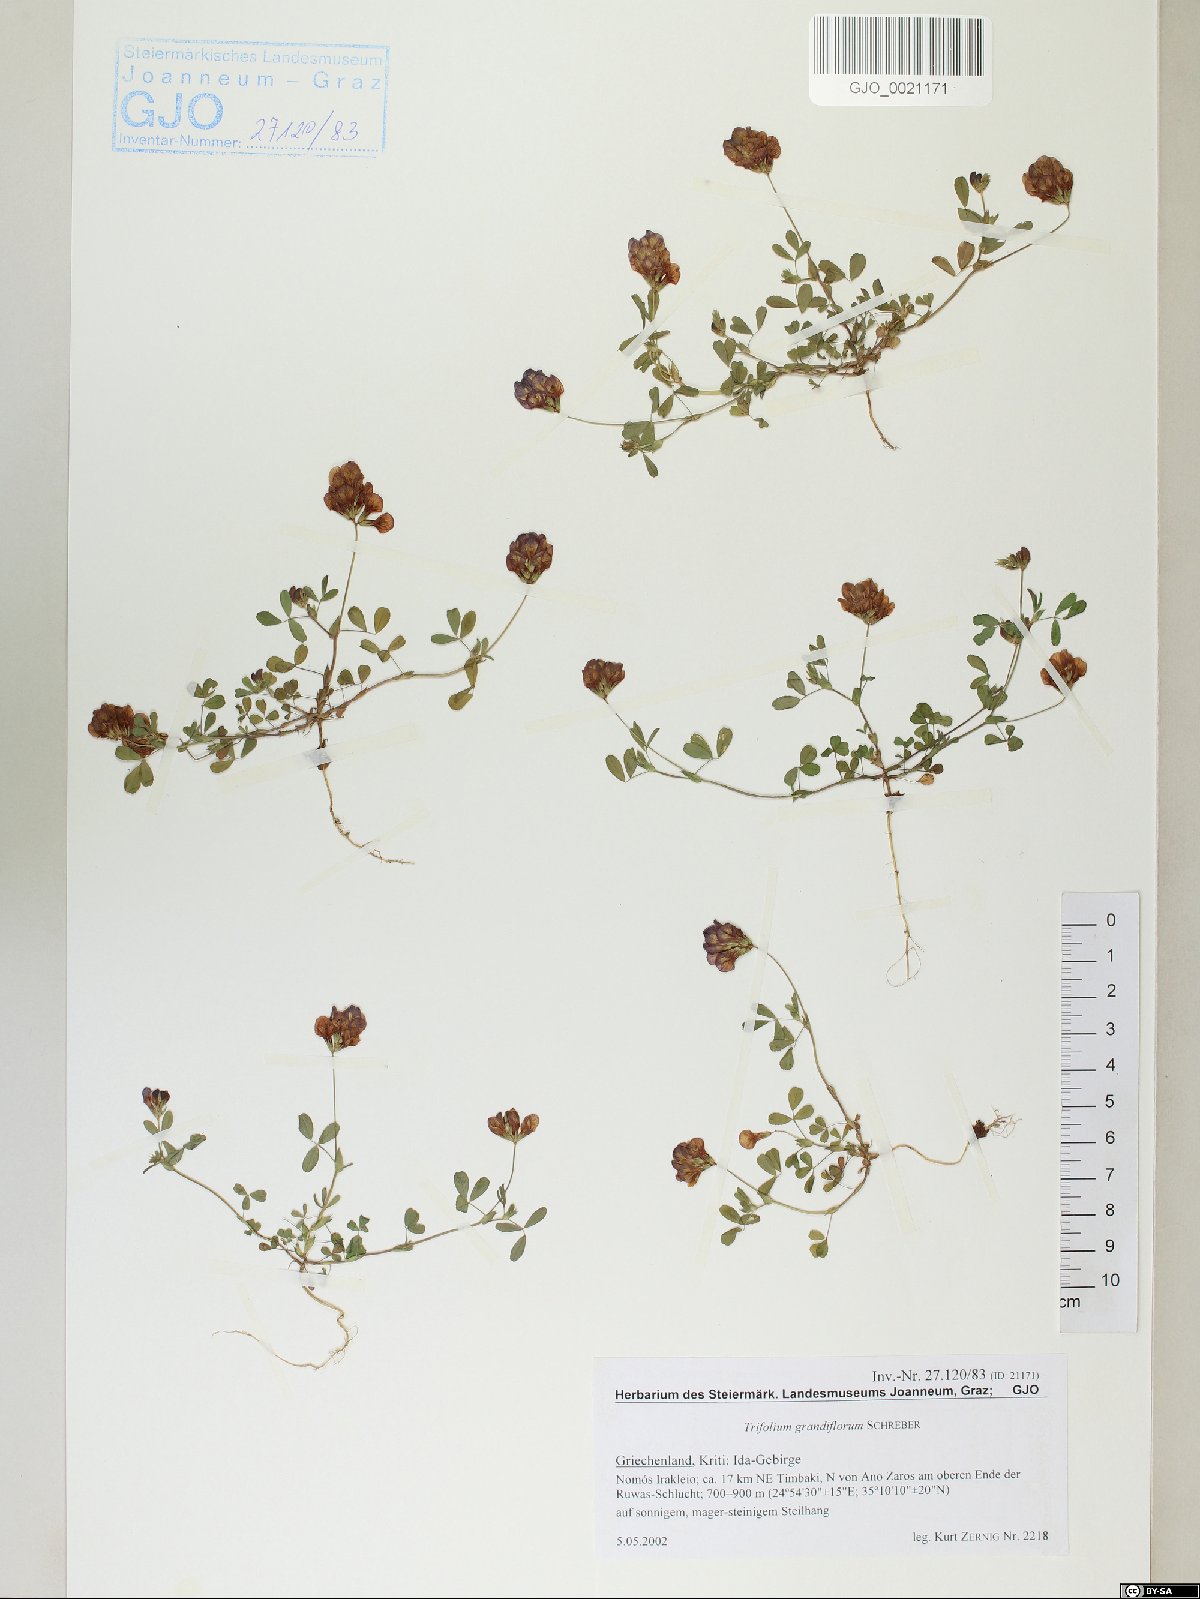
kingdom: Plantae
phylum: Tracheophyta
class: Magnoliopsida
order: Fabales
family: Fabaceae
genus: Trifolium
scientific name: Trifolium grandiflorum
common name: Large-flower hop clover
